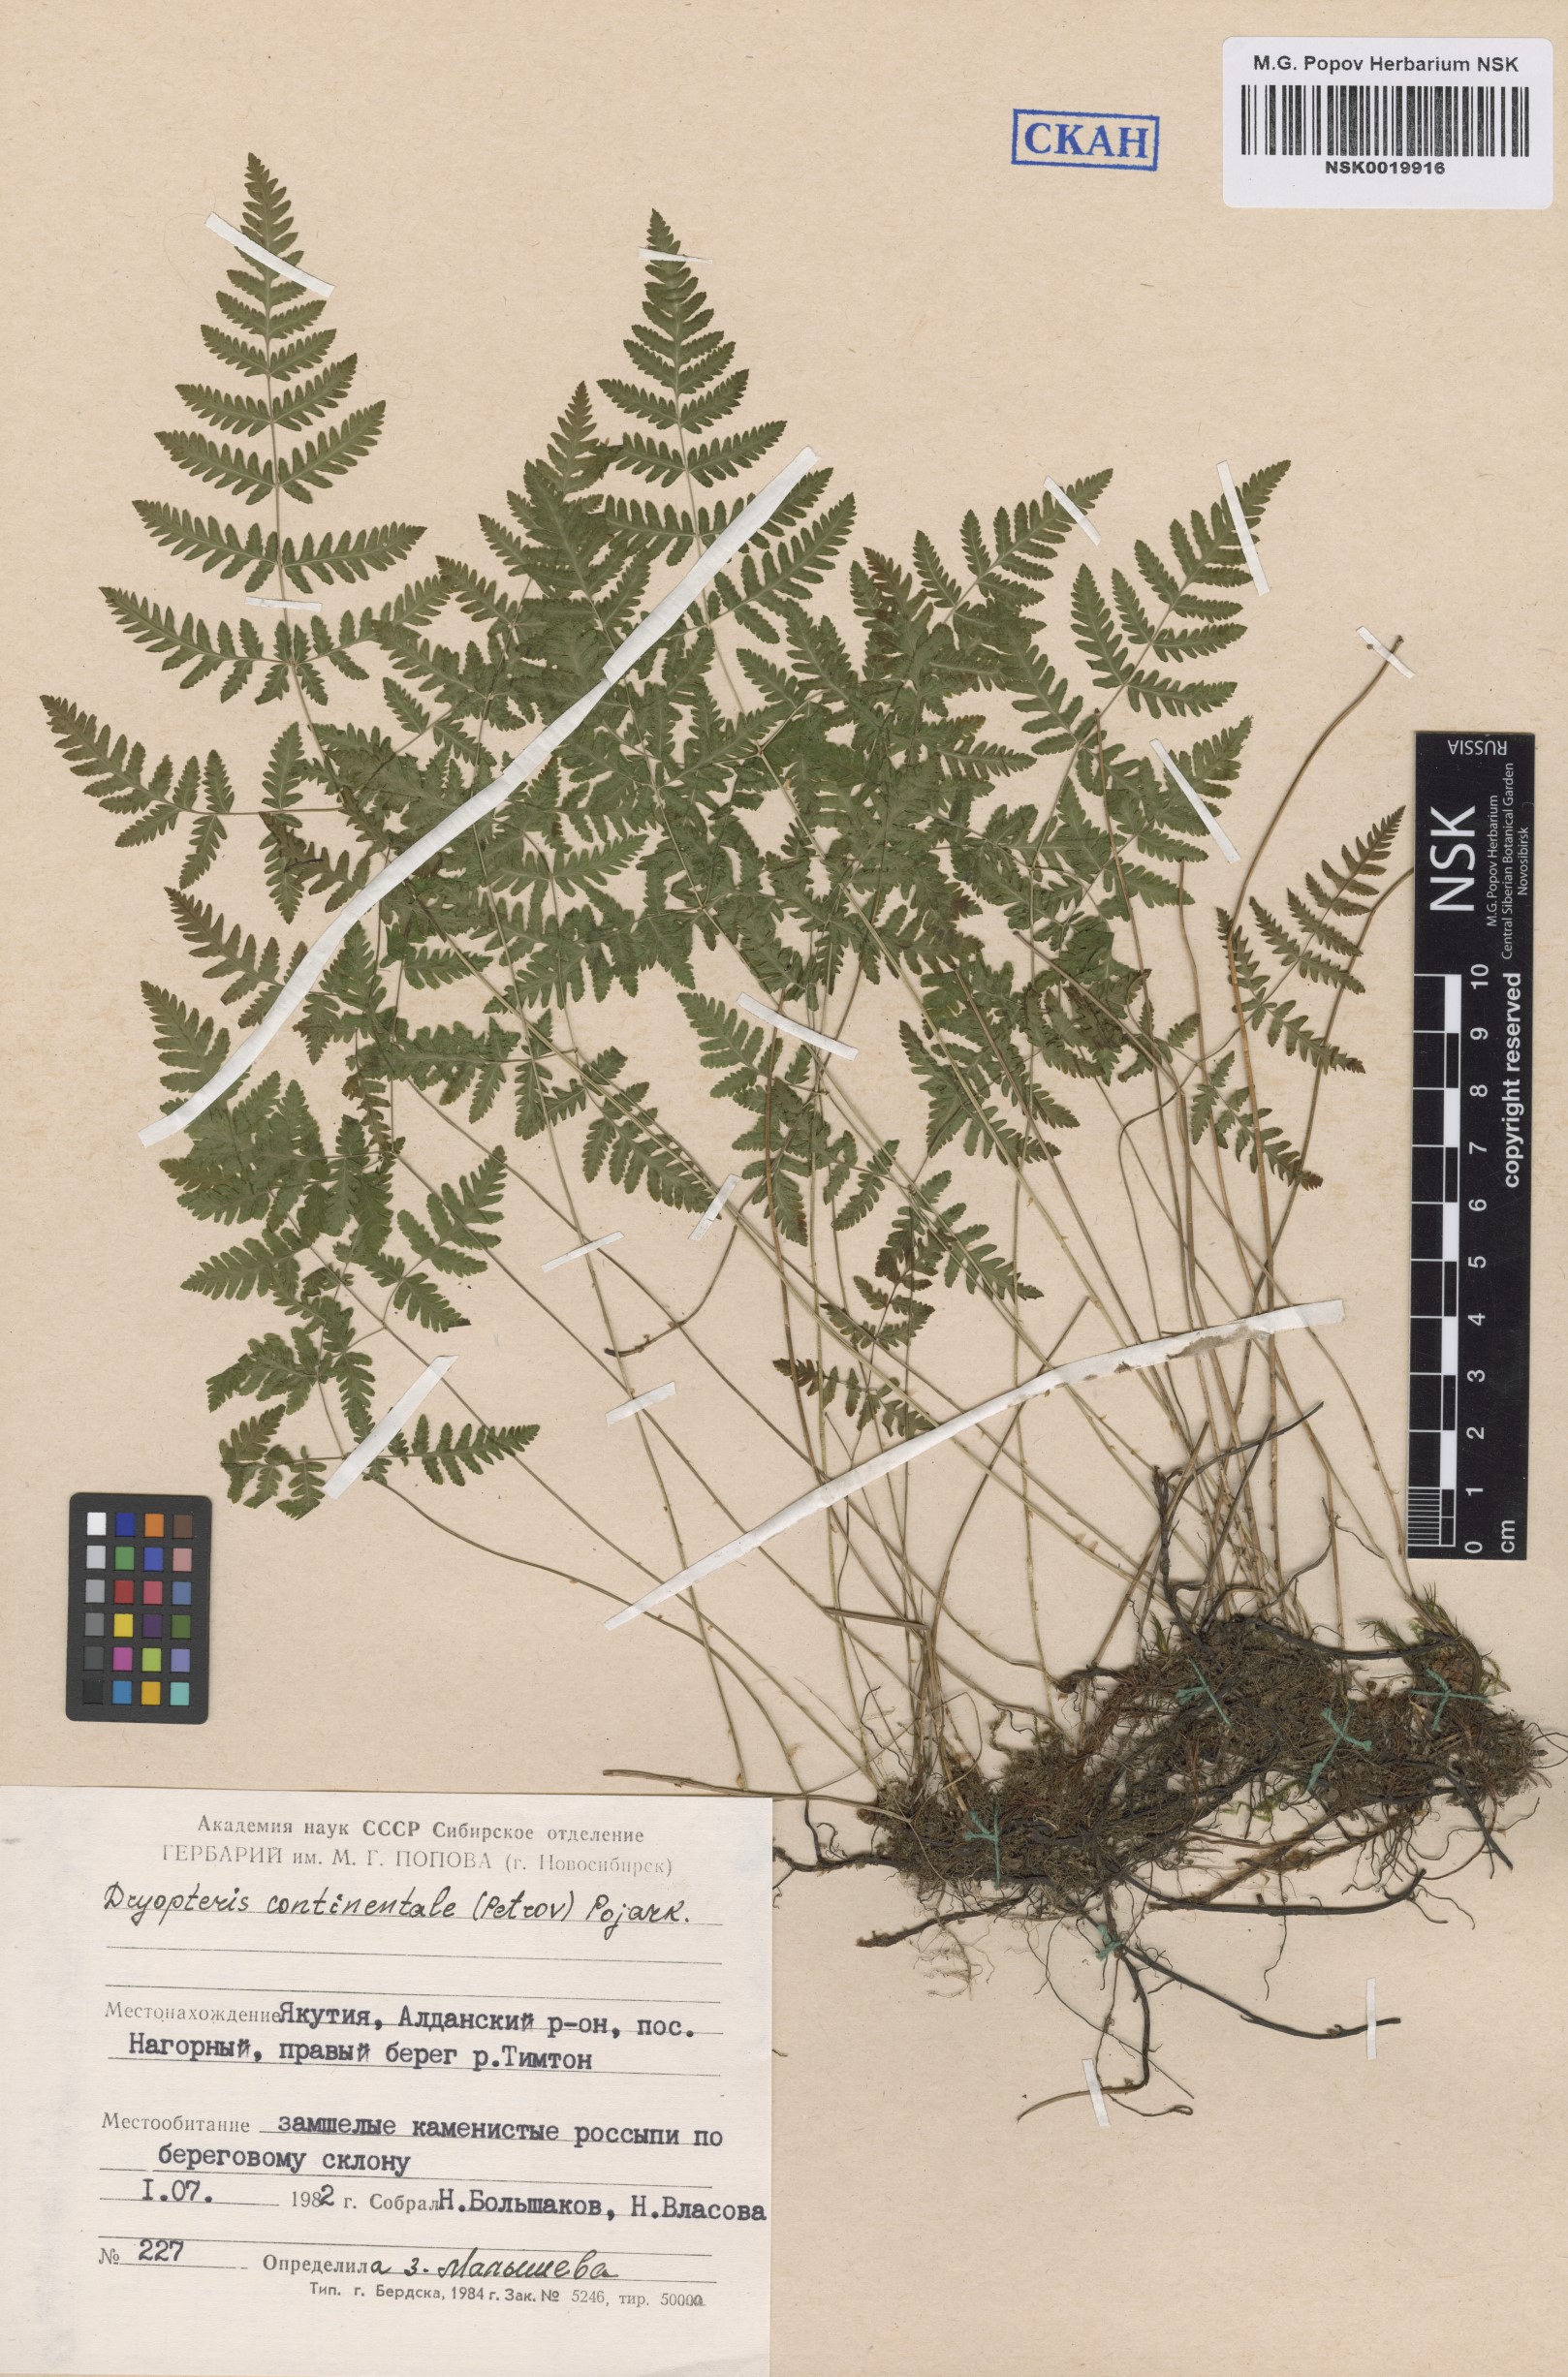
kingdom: Plantae
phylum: Tracheophyta
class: Polypodiopsida
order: Polypodiales
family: Cystopteridaceae
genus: Gymnocarpium
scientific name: Gymnocarpium continentale
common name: Asian oak fern
